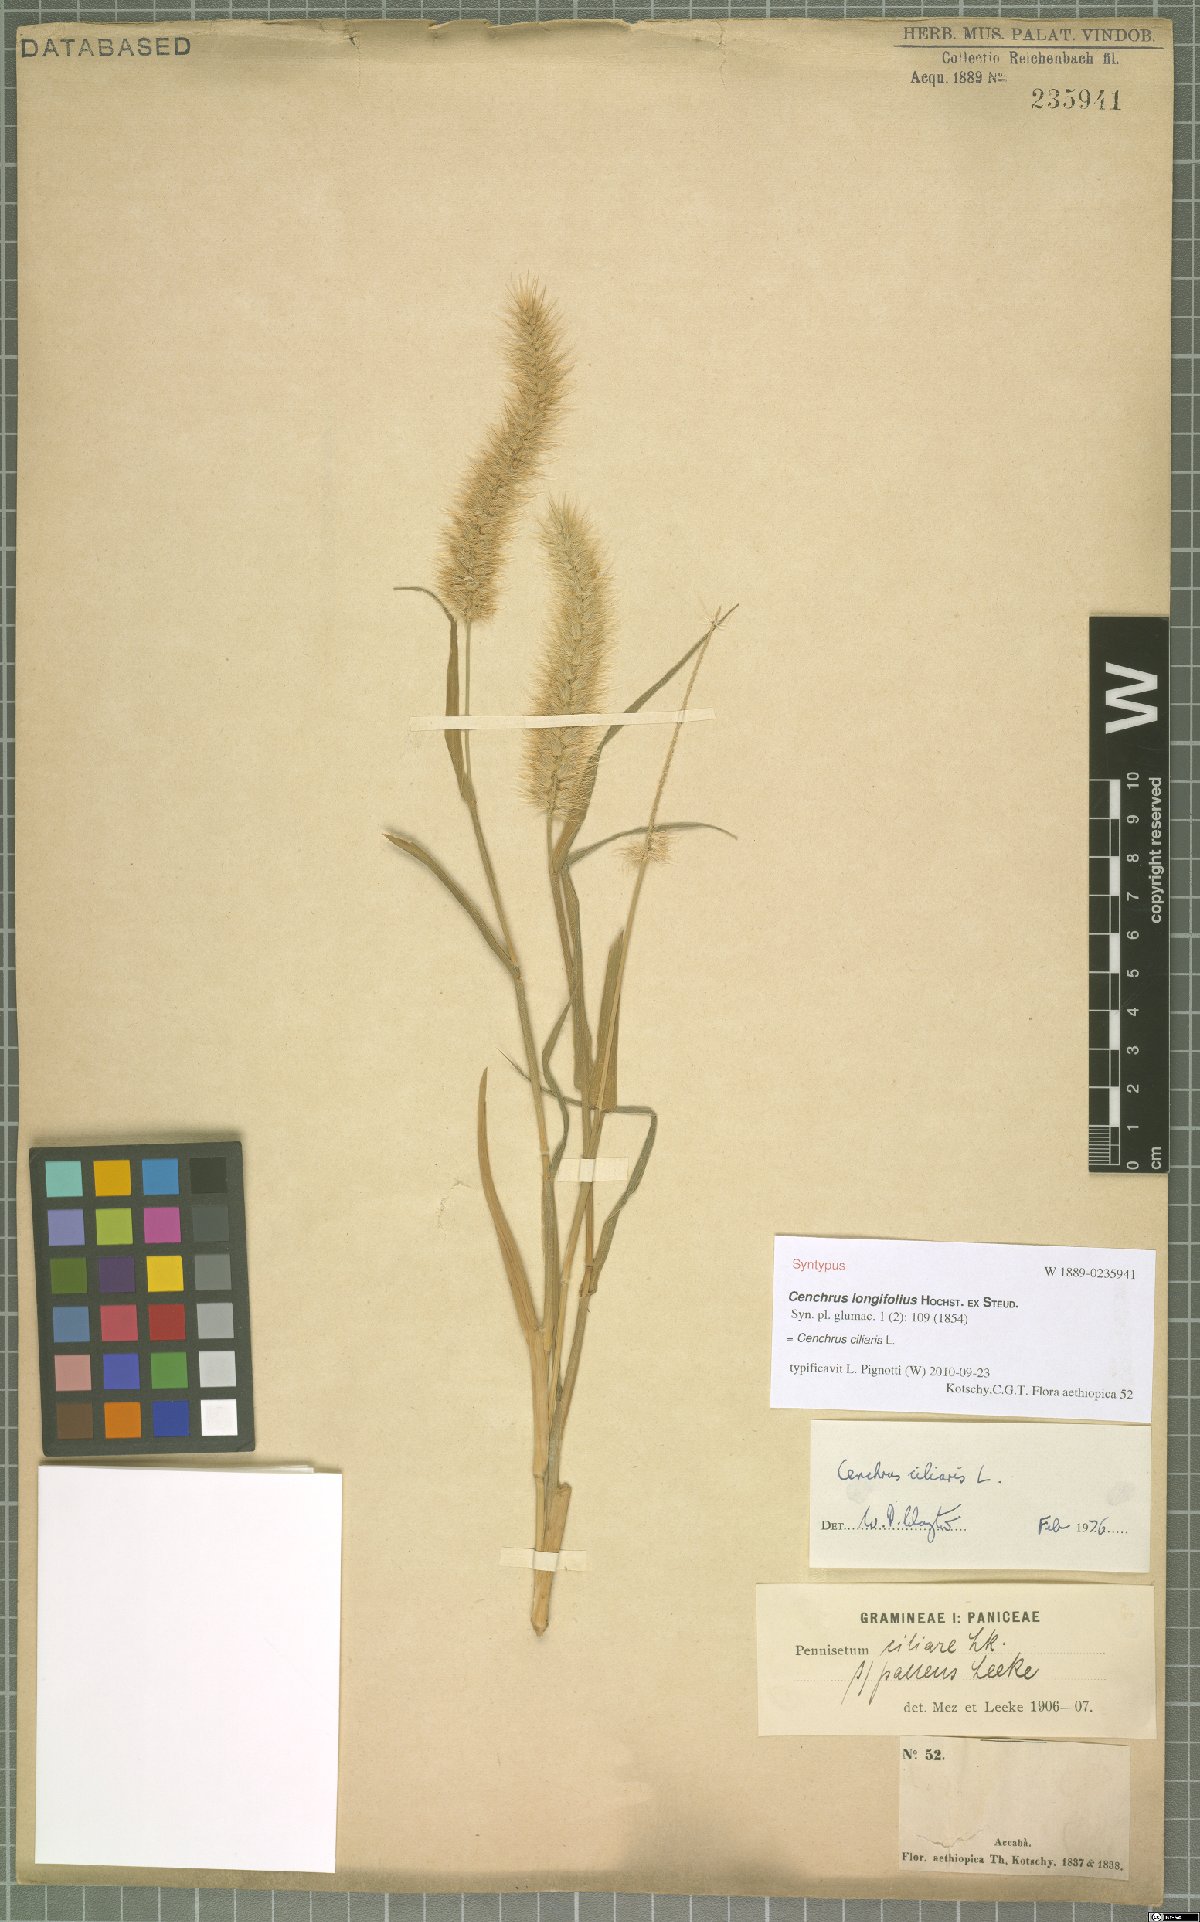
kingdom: Plantae
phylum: Tracheophyta
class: Liliopsida
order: Poales
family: Poaceae
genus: Cenchrus
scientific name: Cenchrus ciliaris
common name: Buffelgrass
